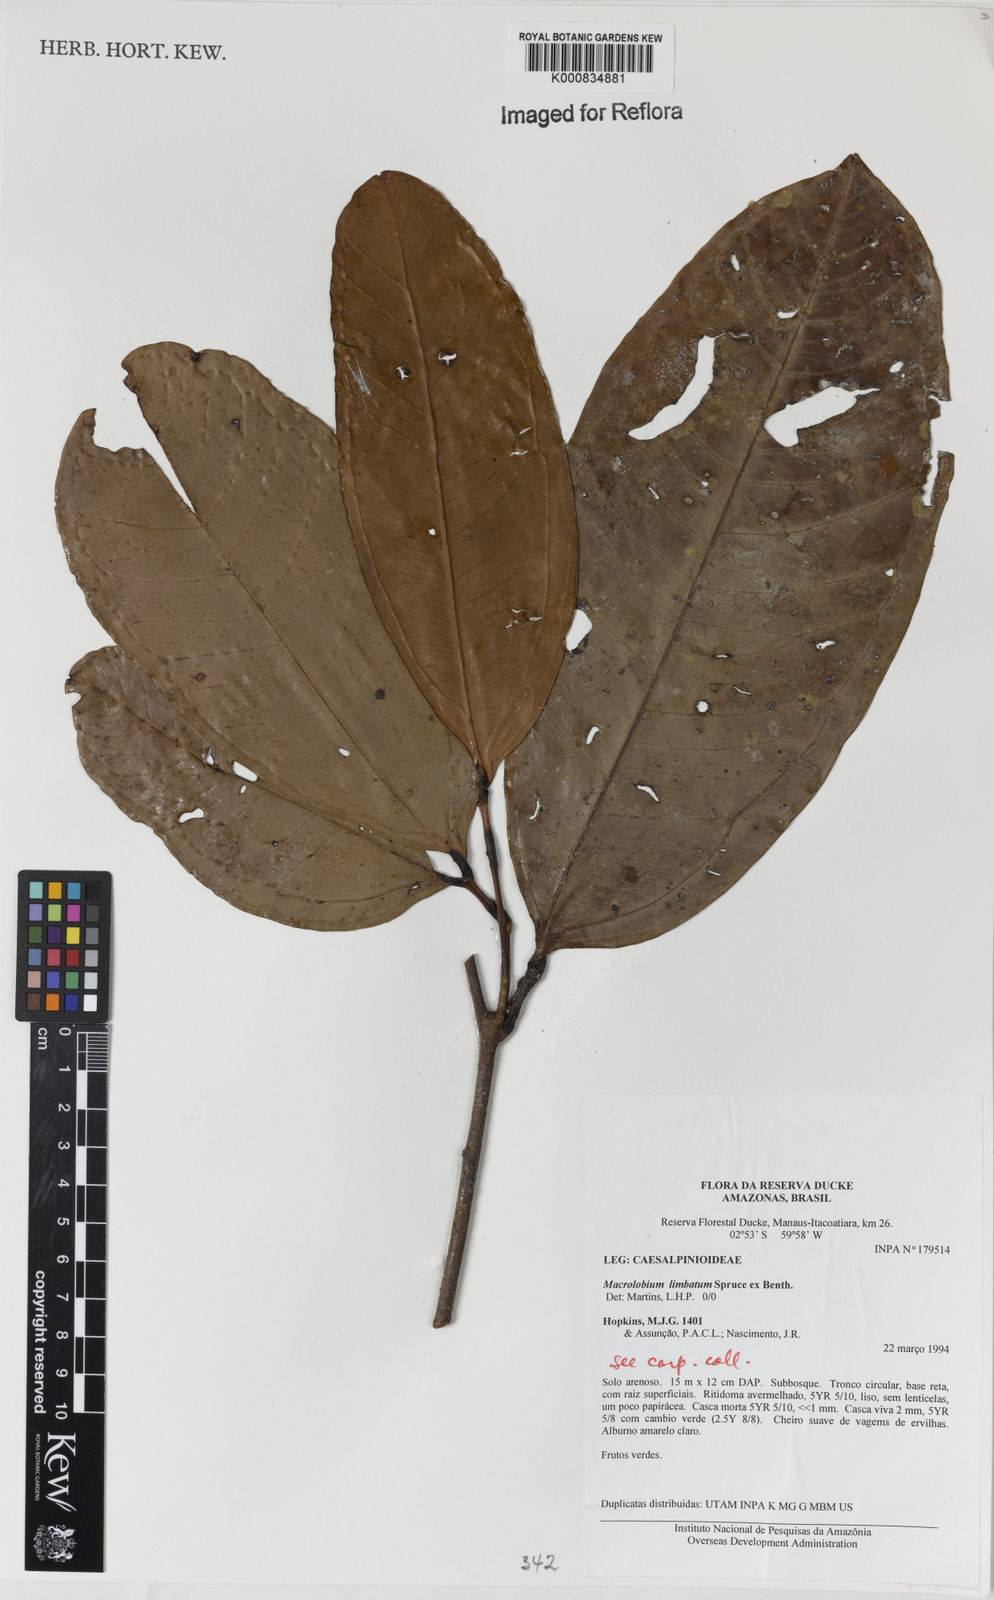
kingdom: Plantae
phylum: Tracheophyta
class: Magnoliopsida
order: Fabales
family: Fabaceae
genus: Macrolobium
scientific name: Macrolobium limbatum
